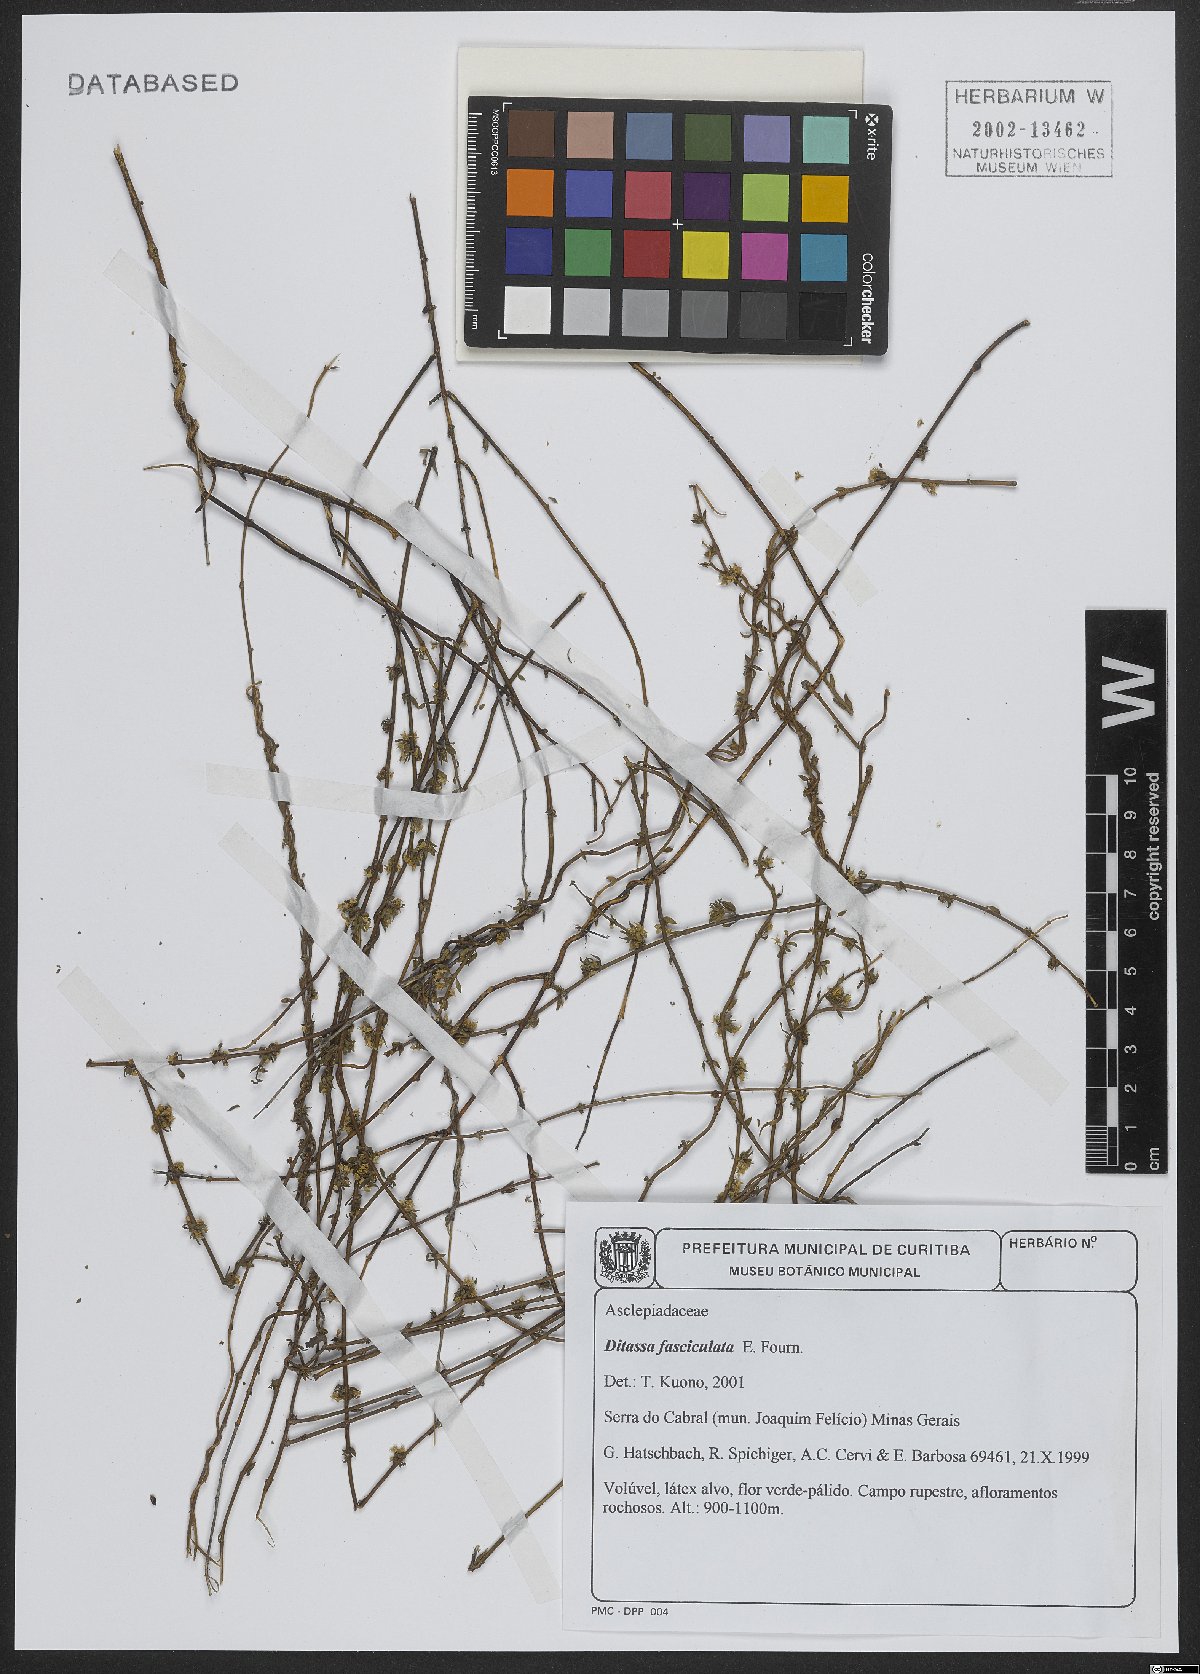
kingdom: Plantae
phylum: Tracheophyta
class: Magnoliopsida
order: Gentianales
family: Apocynaceae
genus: Ditassa
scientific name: Ditassa fasciculata
